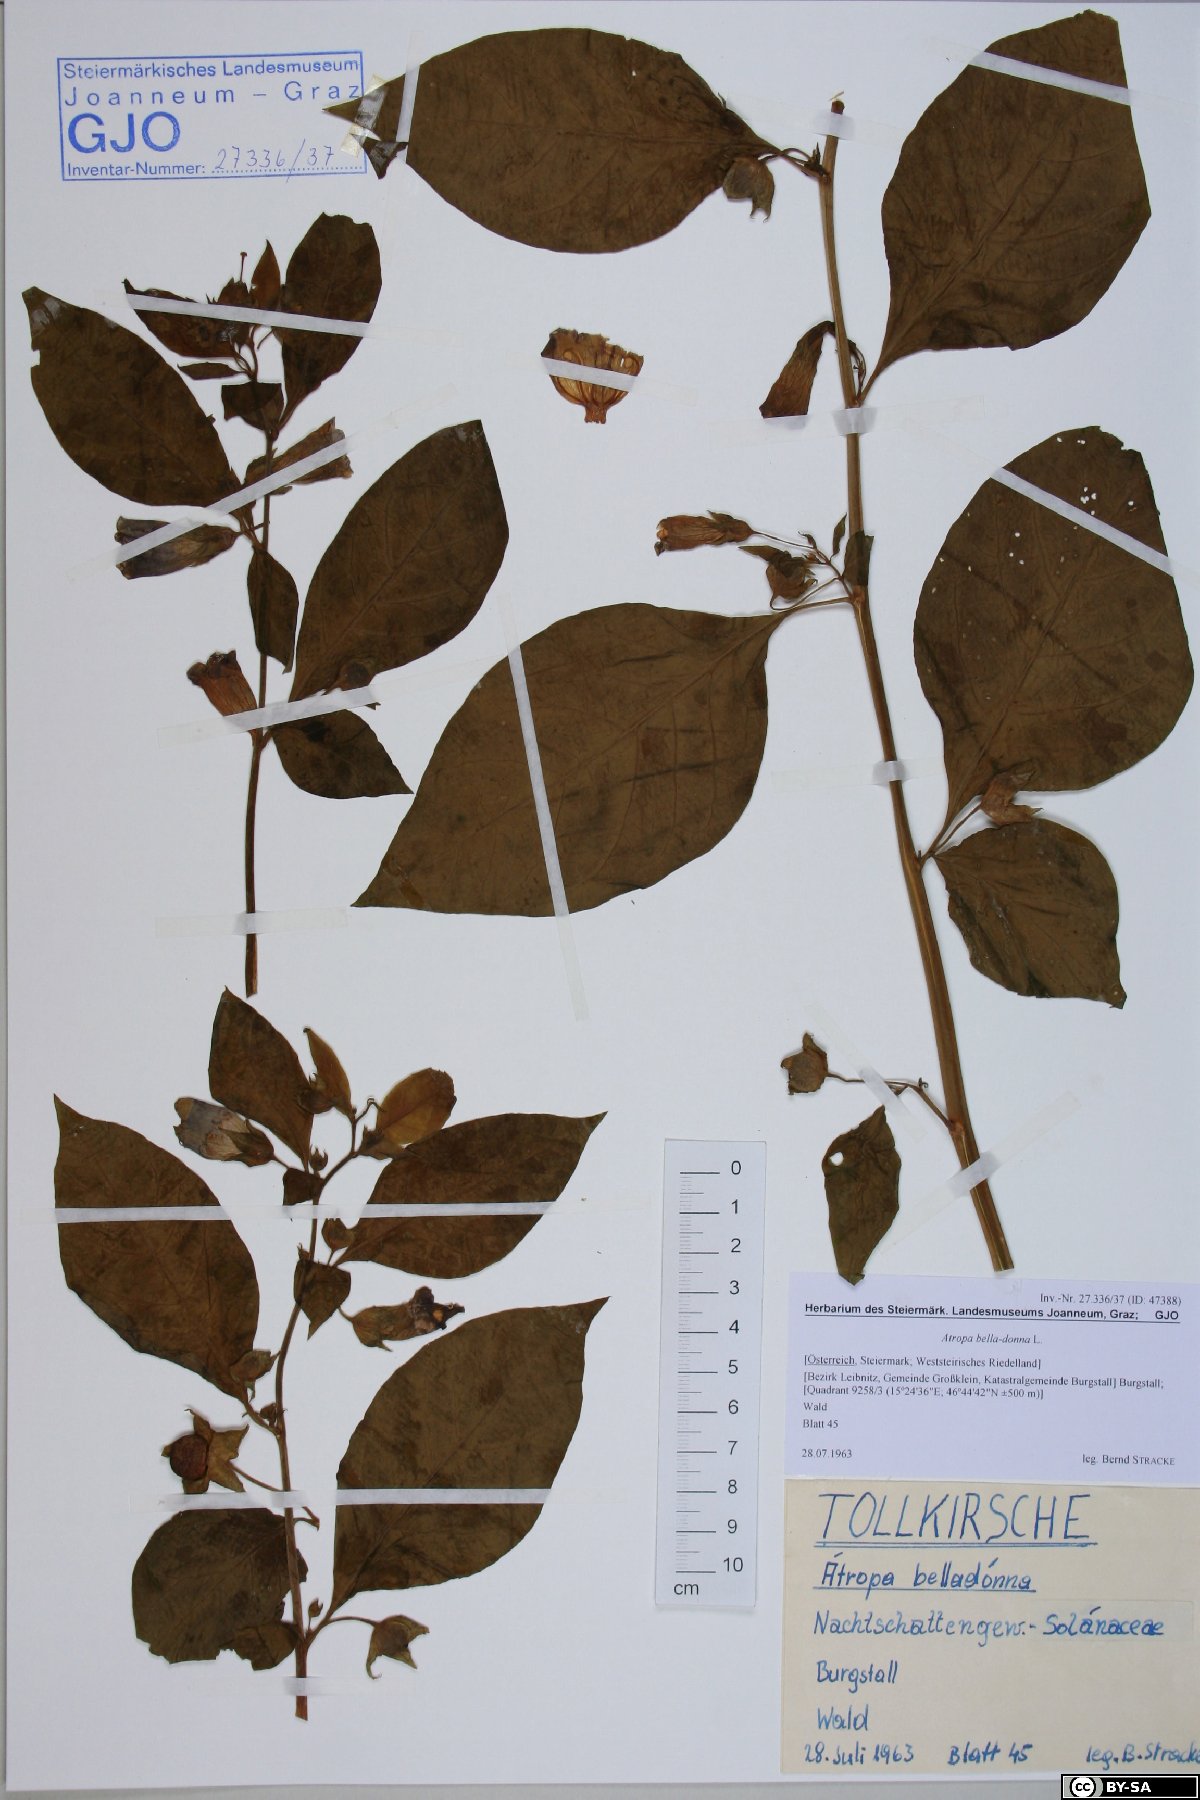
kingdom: Plantae
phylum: Tracheophyta
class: Magnoliopsida
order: Solanales
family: Solanaceae
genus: Atropa
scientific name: Atropa belladonna
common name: Deadly nightshade
